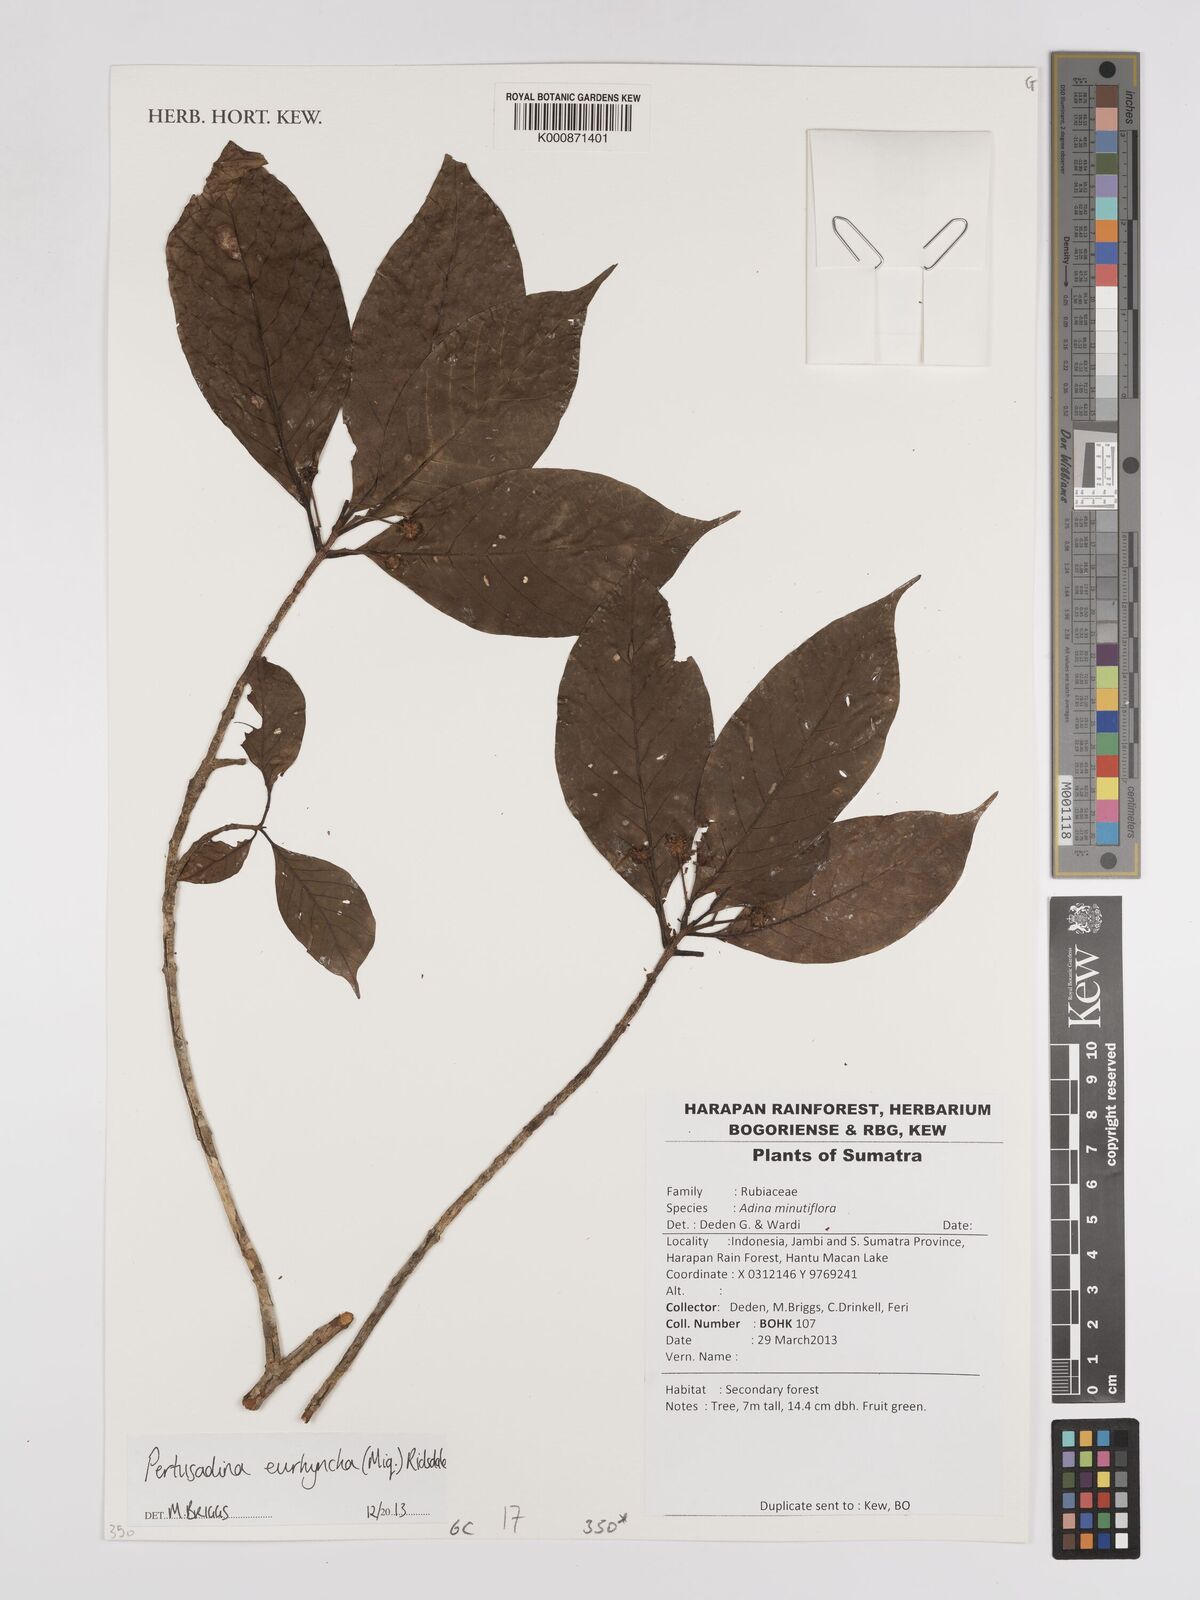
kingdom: Plantae
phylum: Tracheophyta
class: Magnoliopsida
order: Gentianales
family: Rubiaceae
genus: Adina
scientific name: Adina eurhyncha
